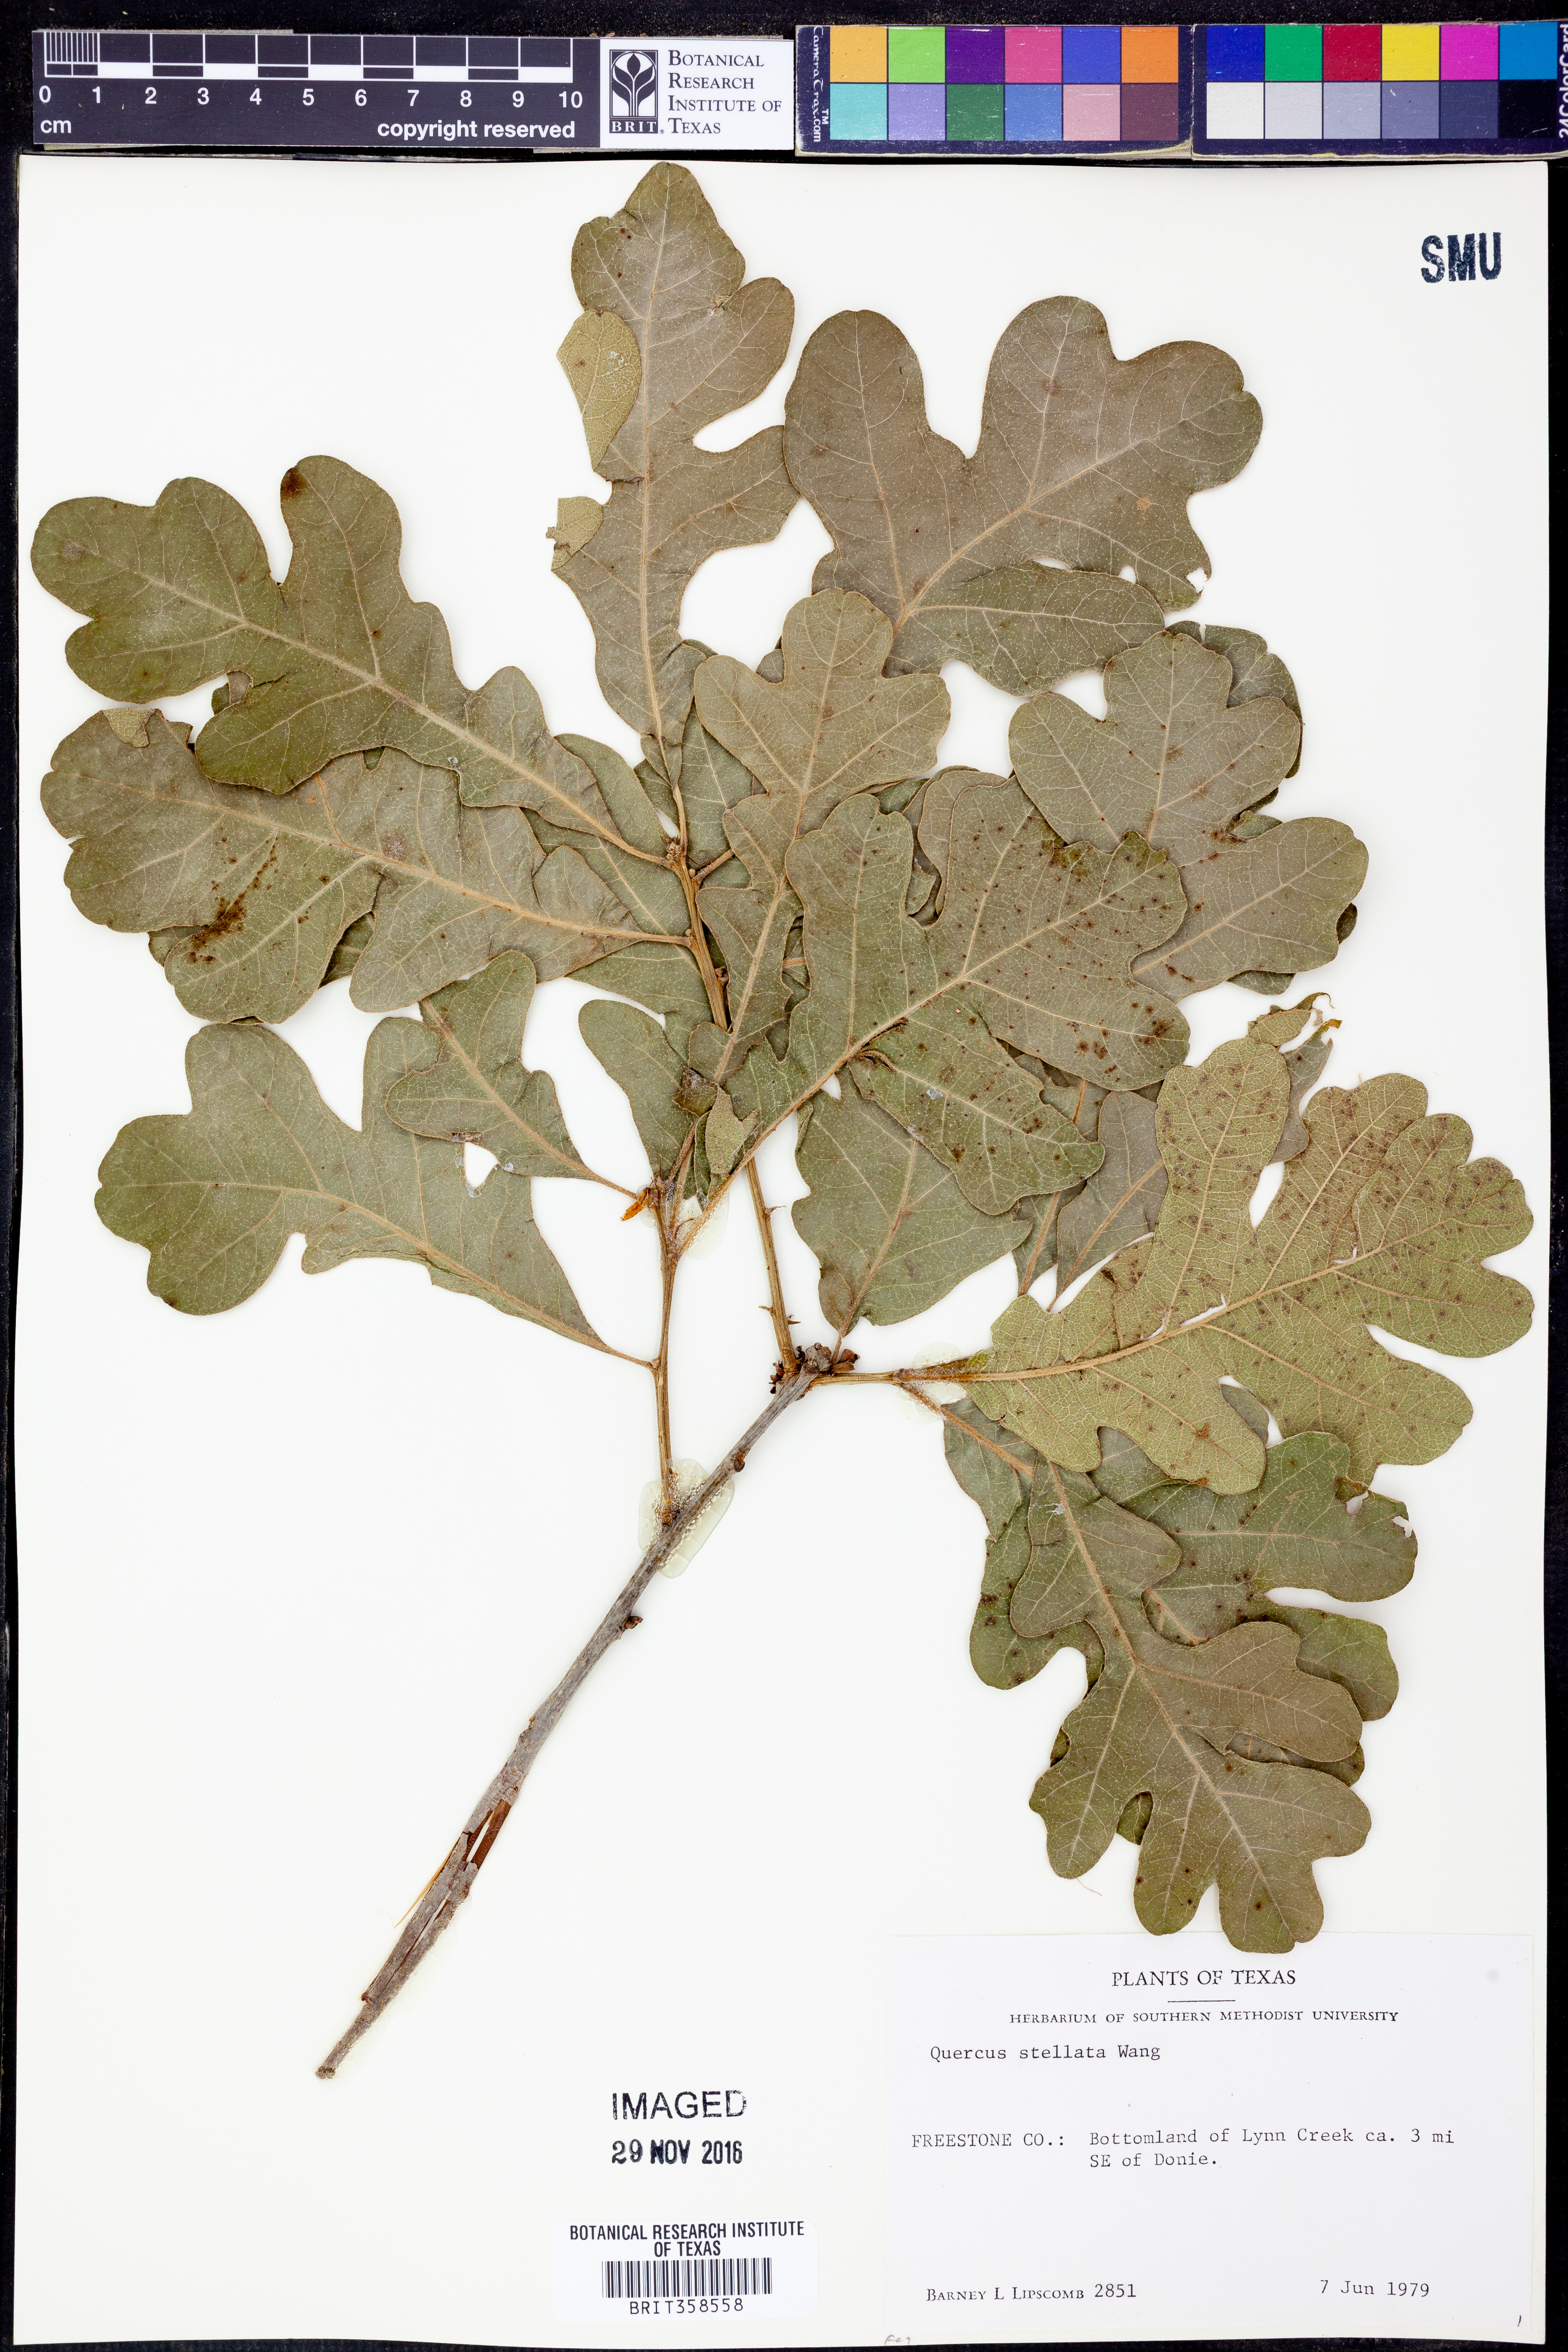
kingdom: Plantae
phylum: Tracheophyta
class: Magnoliopsida
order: Fagales
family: Fagaceae
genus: Quercus
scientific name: Quercus stellata
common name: Post oak
